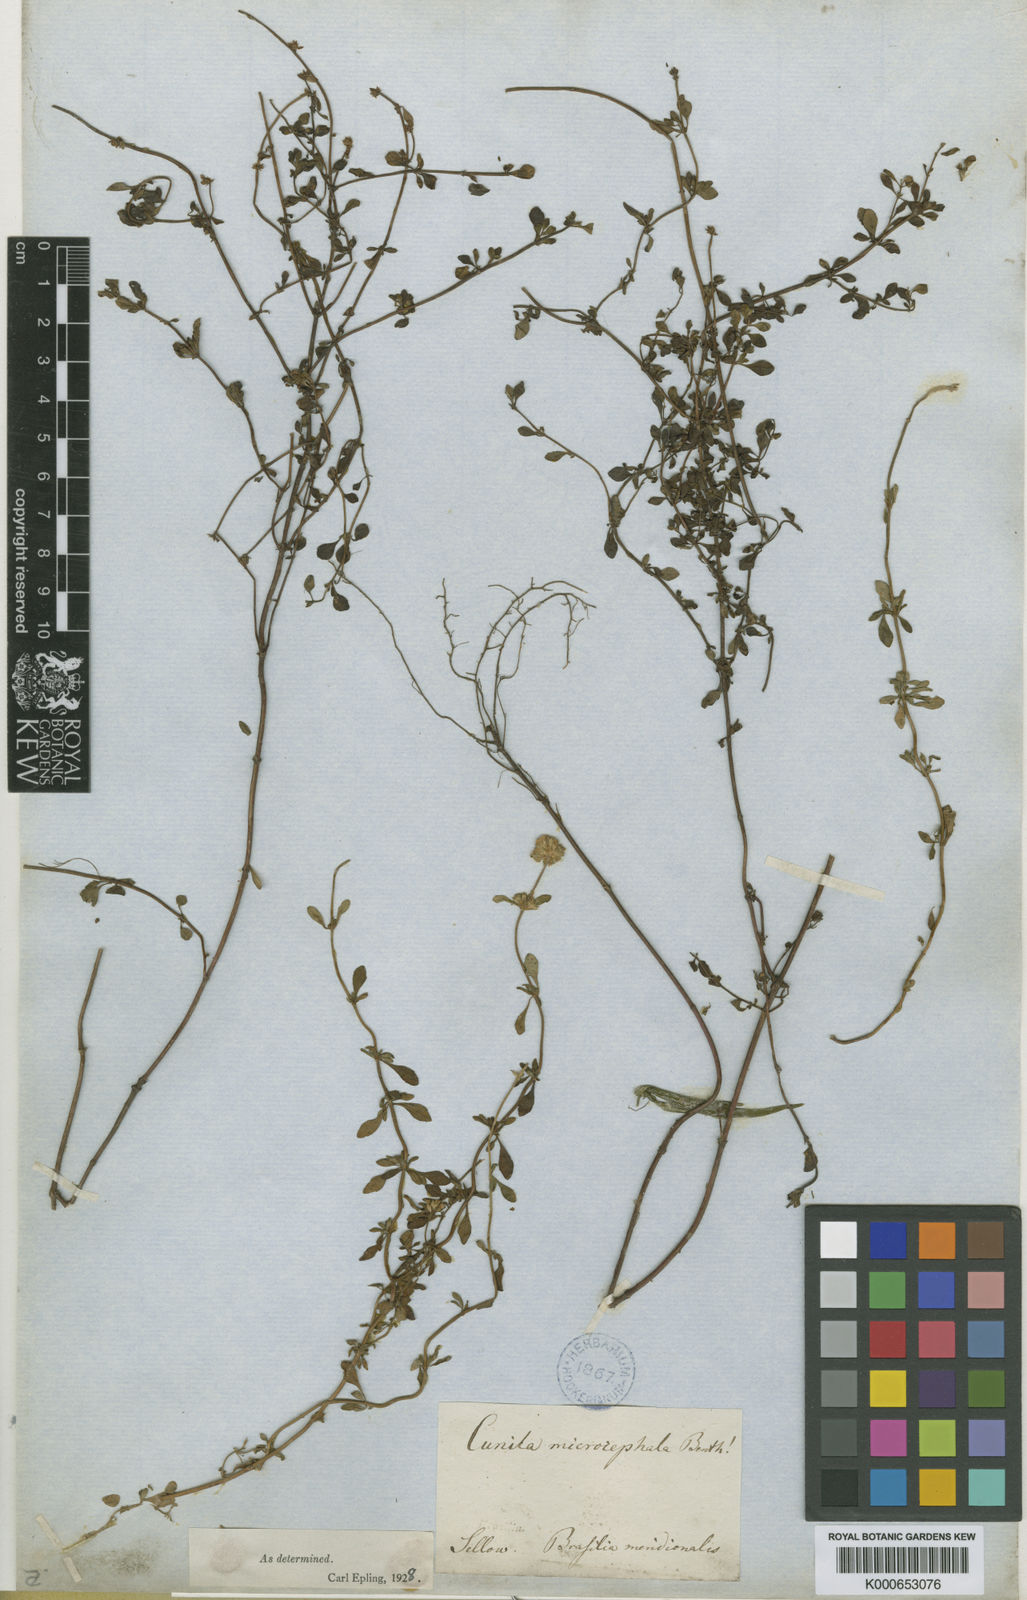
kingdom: Plantae
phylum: Tracheophyta
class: Magnoliopsida
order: Lamiales
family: Lamiaceae
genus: Cunila
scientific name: Cunila microcephala
